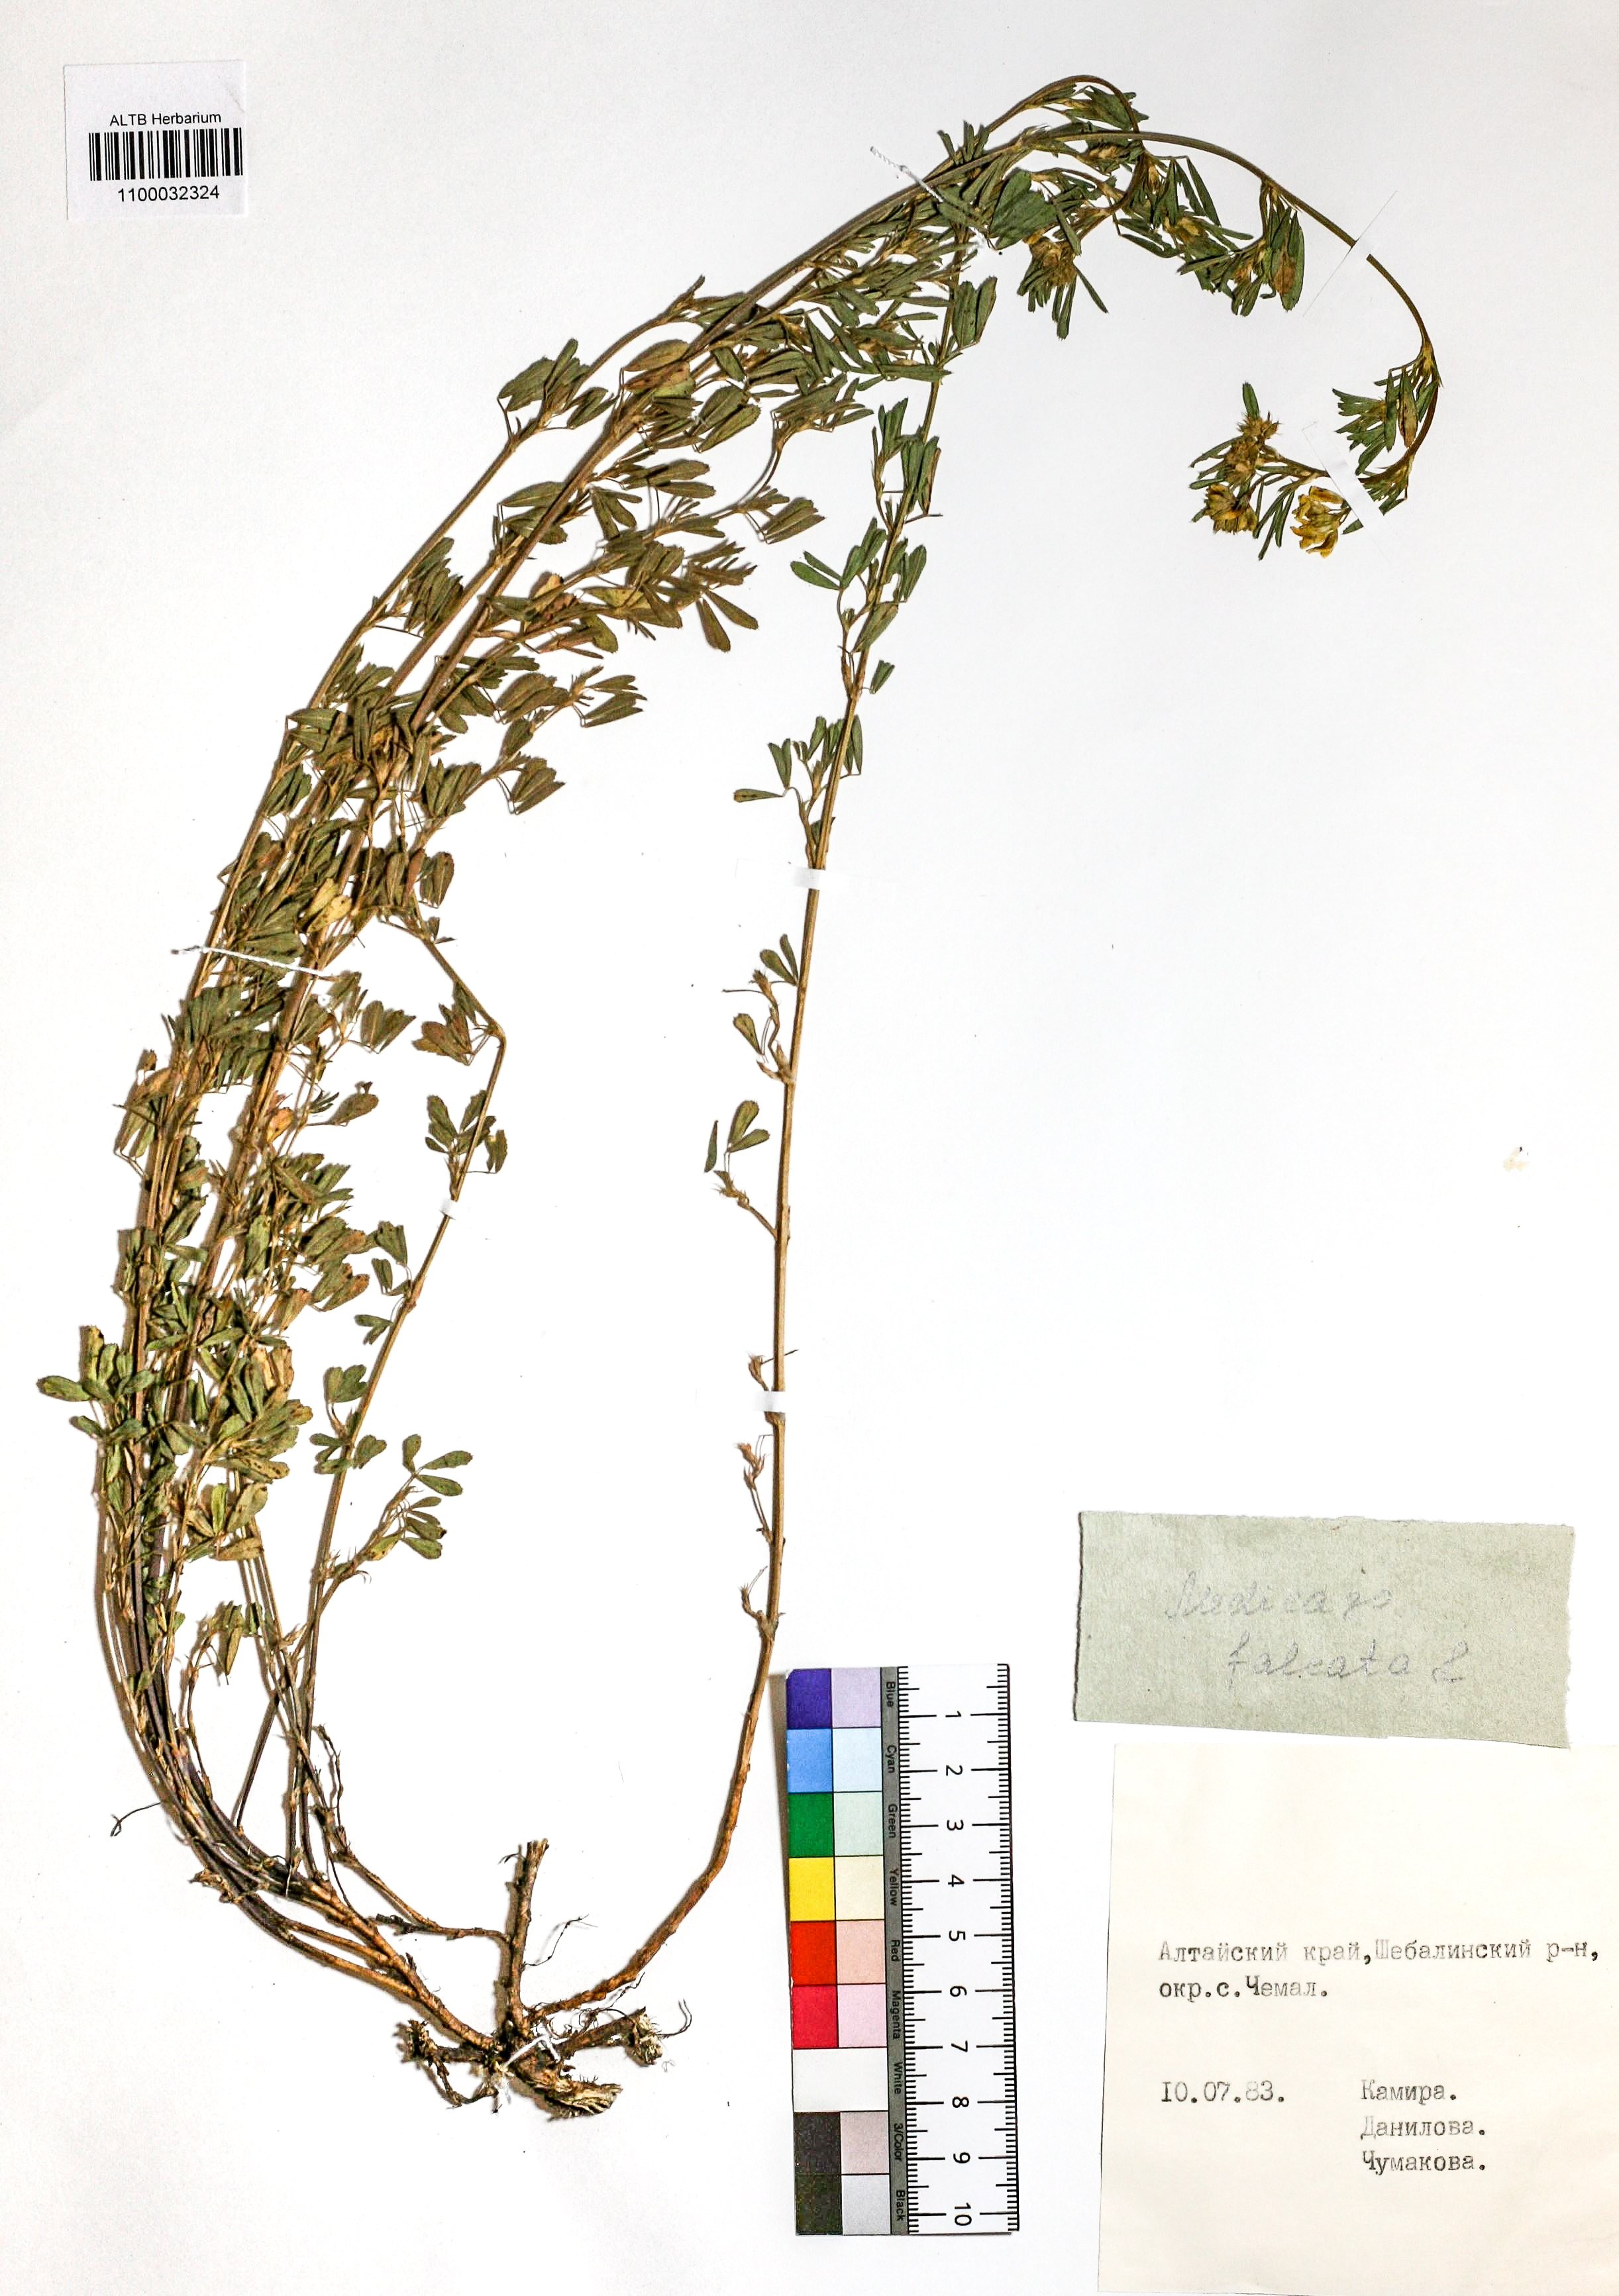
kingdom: Plantae
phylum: Tracheophyta
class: Magnoliopsida
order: Fabales
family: Fabaceae
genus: Medicago
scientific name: Medicago falcata
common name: Sickle medick
